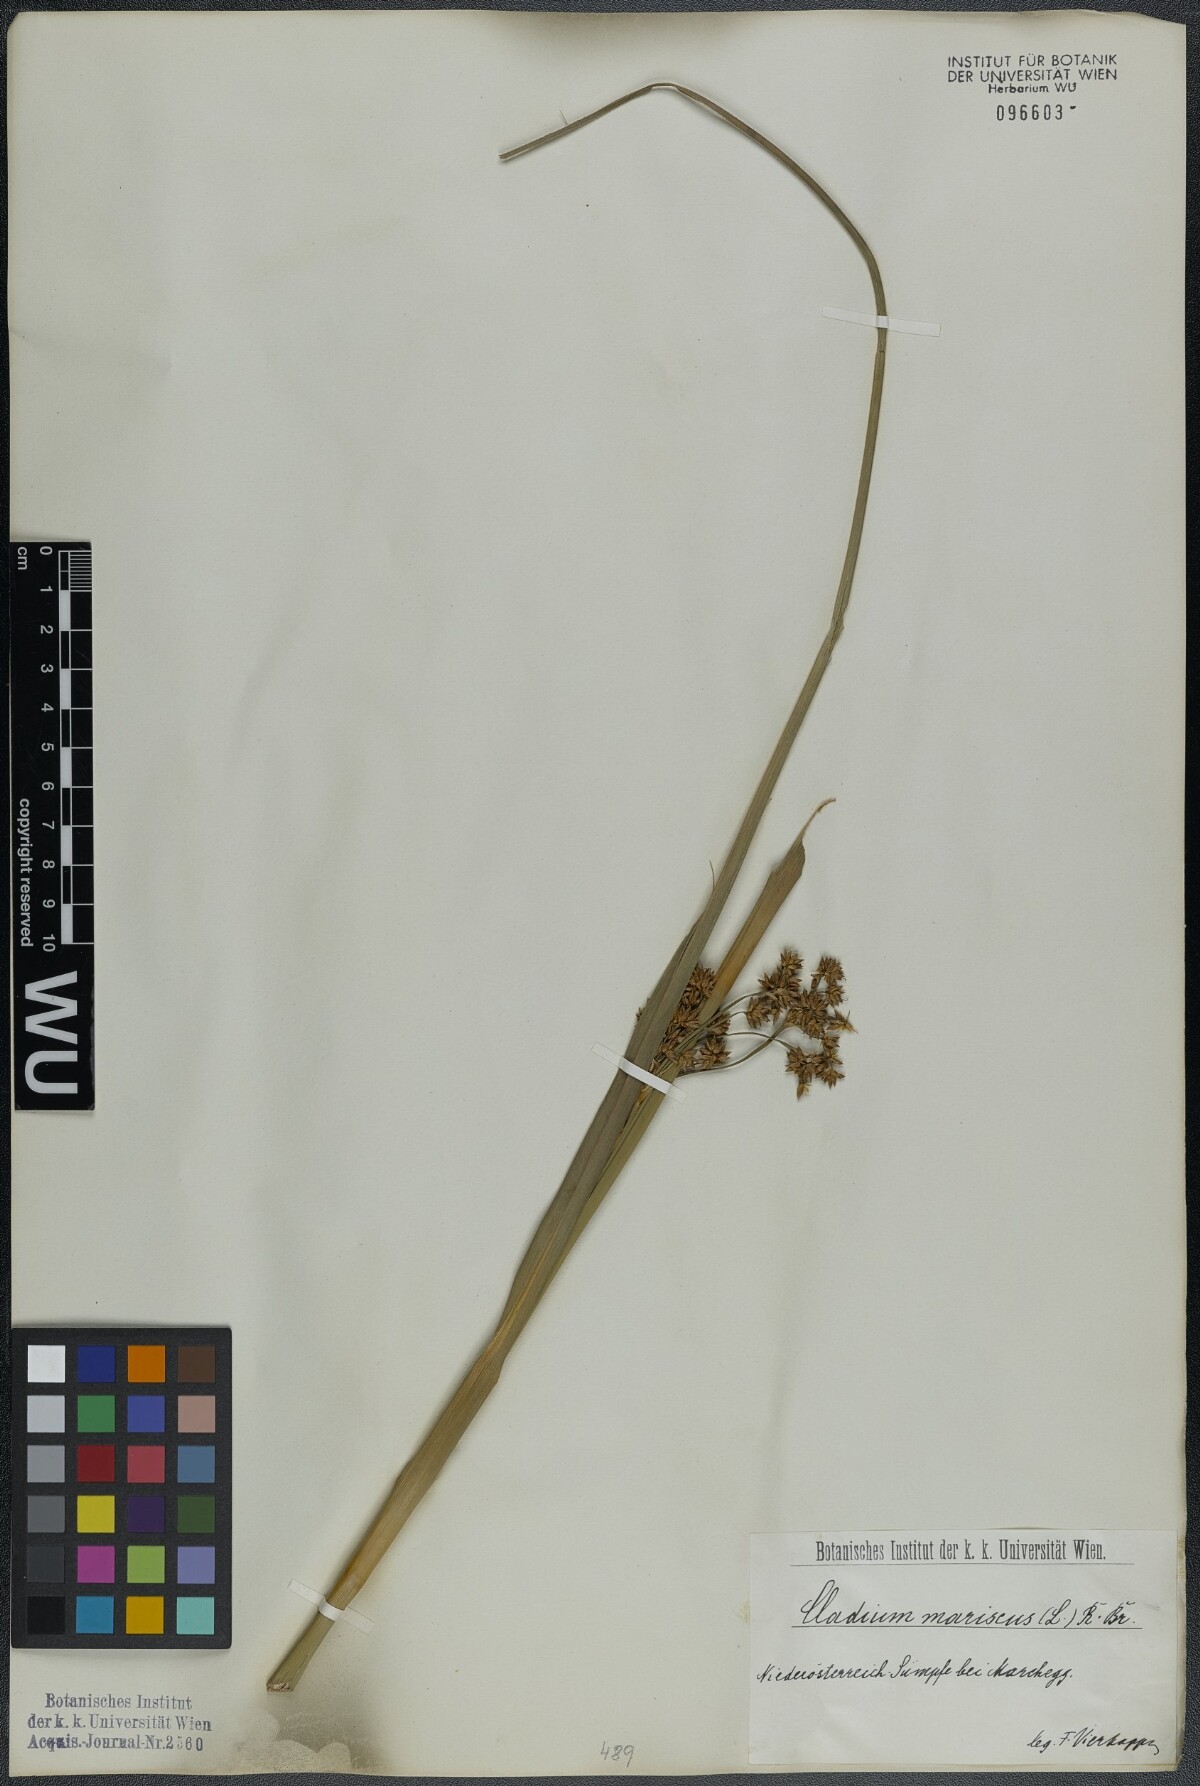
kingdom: Plantae
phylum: Tracheophyta
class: Liliopsida
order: Poales
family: Cyperaceae
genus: Cladium
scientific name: Cladium mariscus
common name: Great fen-sedge
